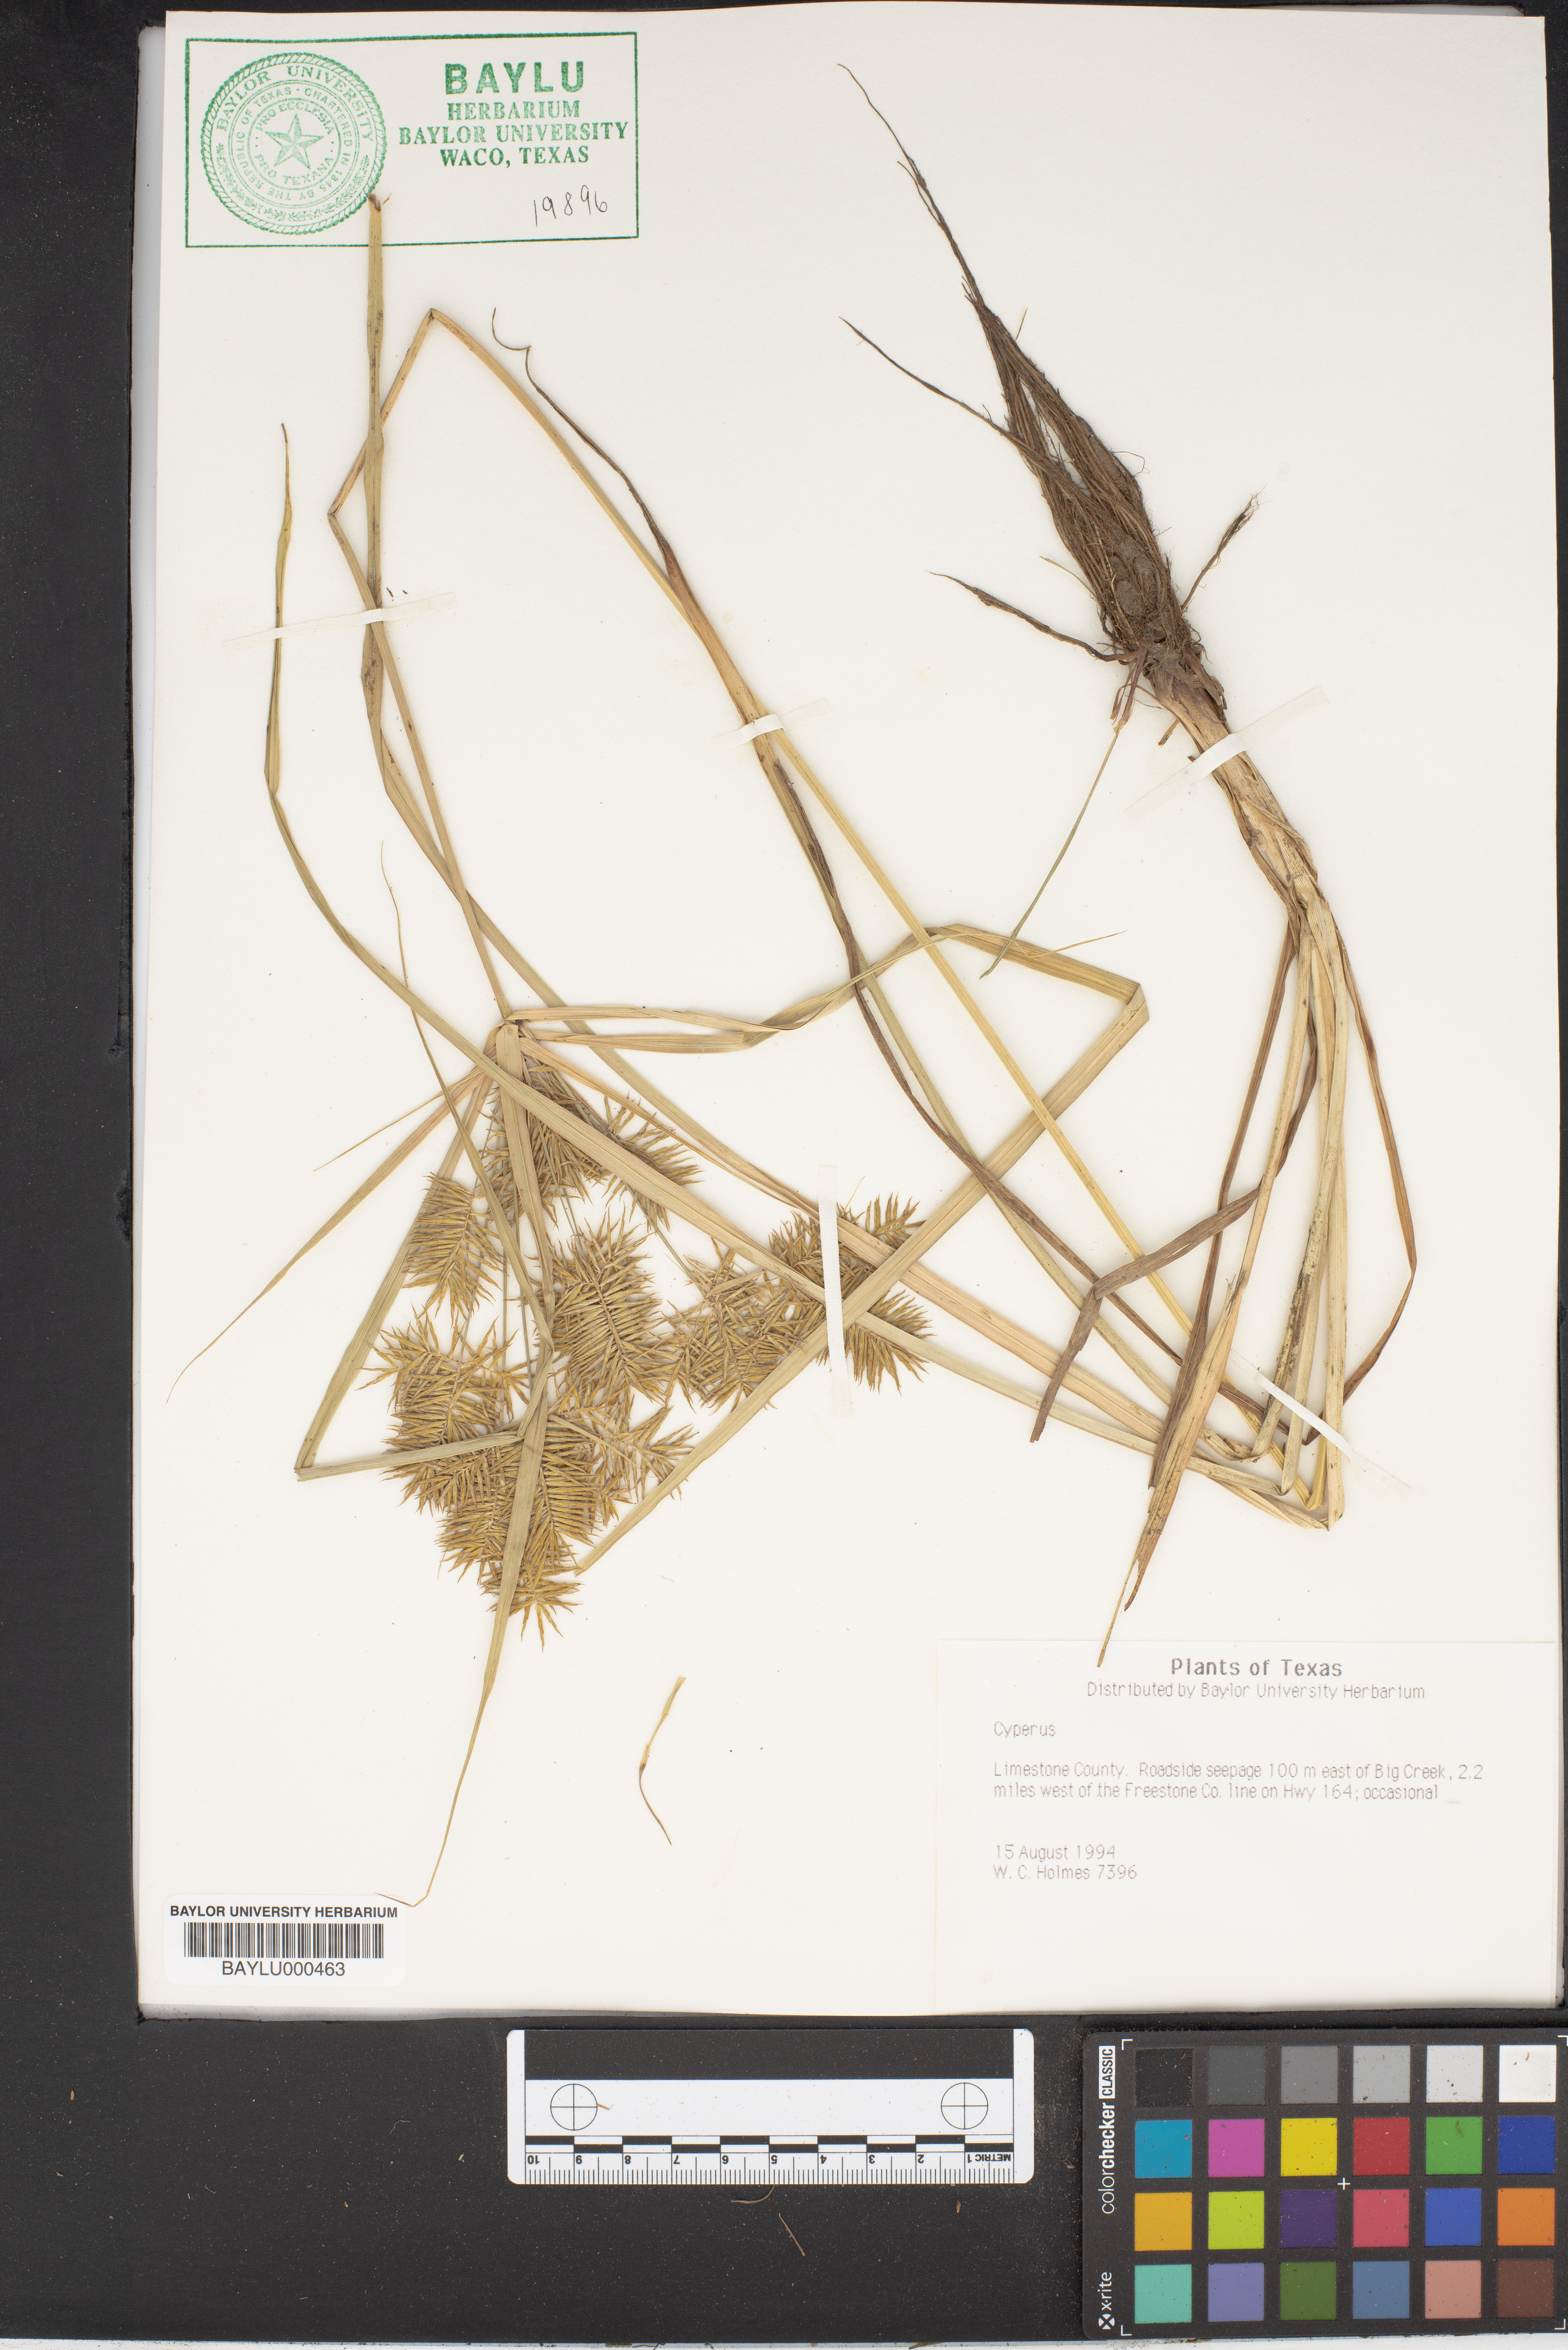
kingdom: Plantae
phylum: Tracheophyta
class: Liliopsida
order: Poales
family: Cyperaceae
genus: Cyperus
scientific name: Cyperus
